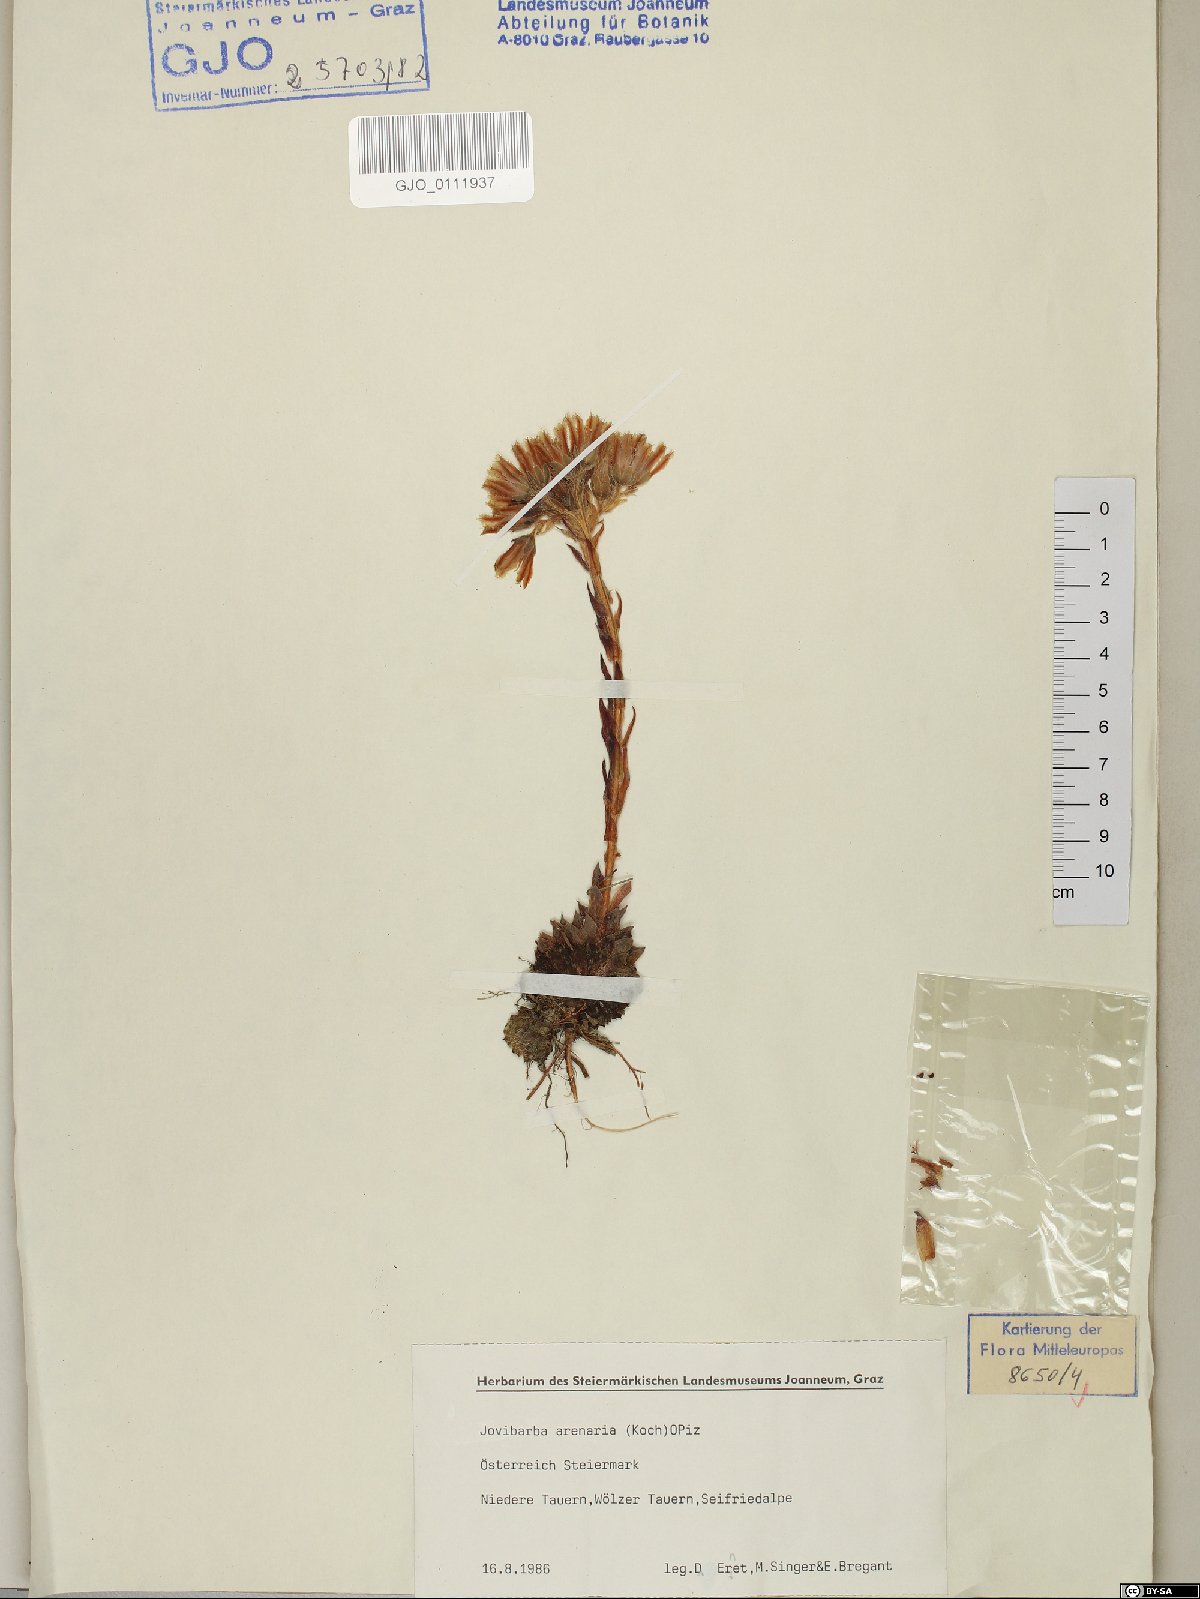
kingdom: Plantae
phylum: Tracheophyta
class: Magnoliopsida
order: Saxifragales
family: Crassulaceae
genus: Sempervivum
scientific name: Sempervivum globiferum
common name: Rolling hen-and-chicks
